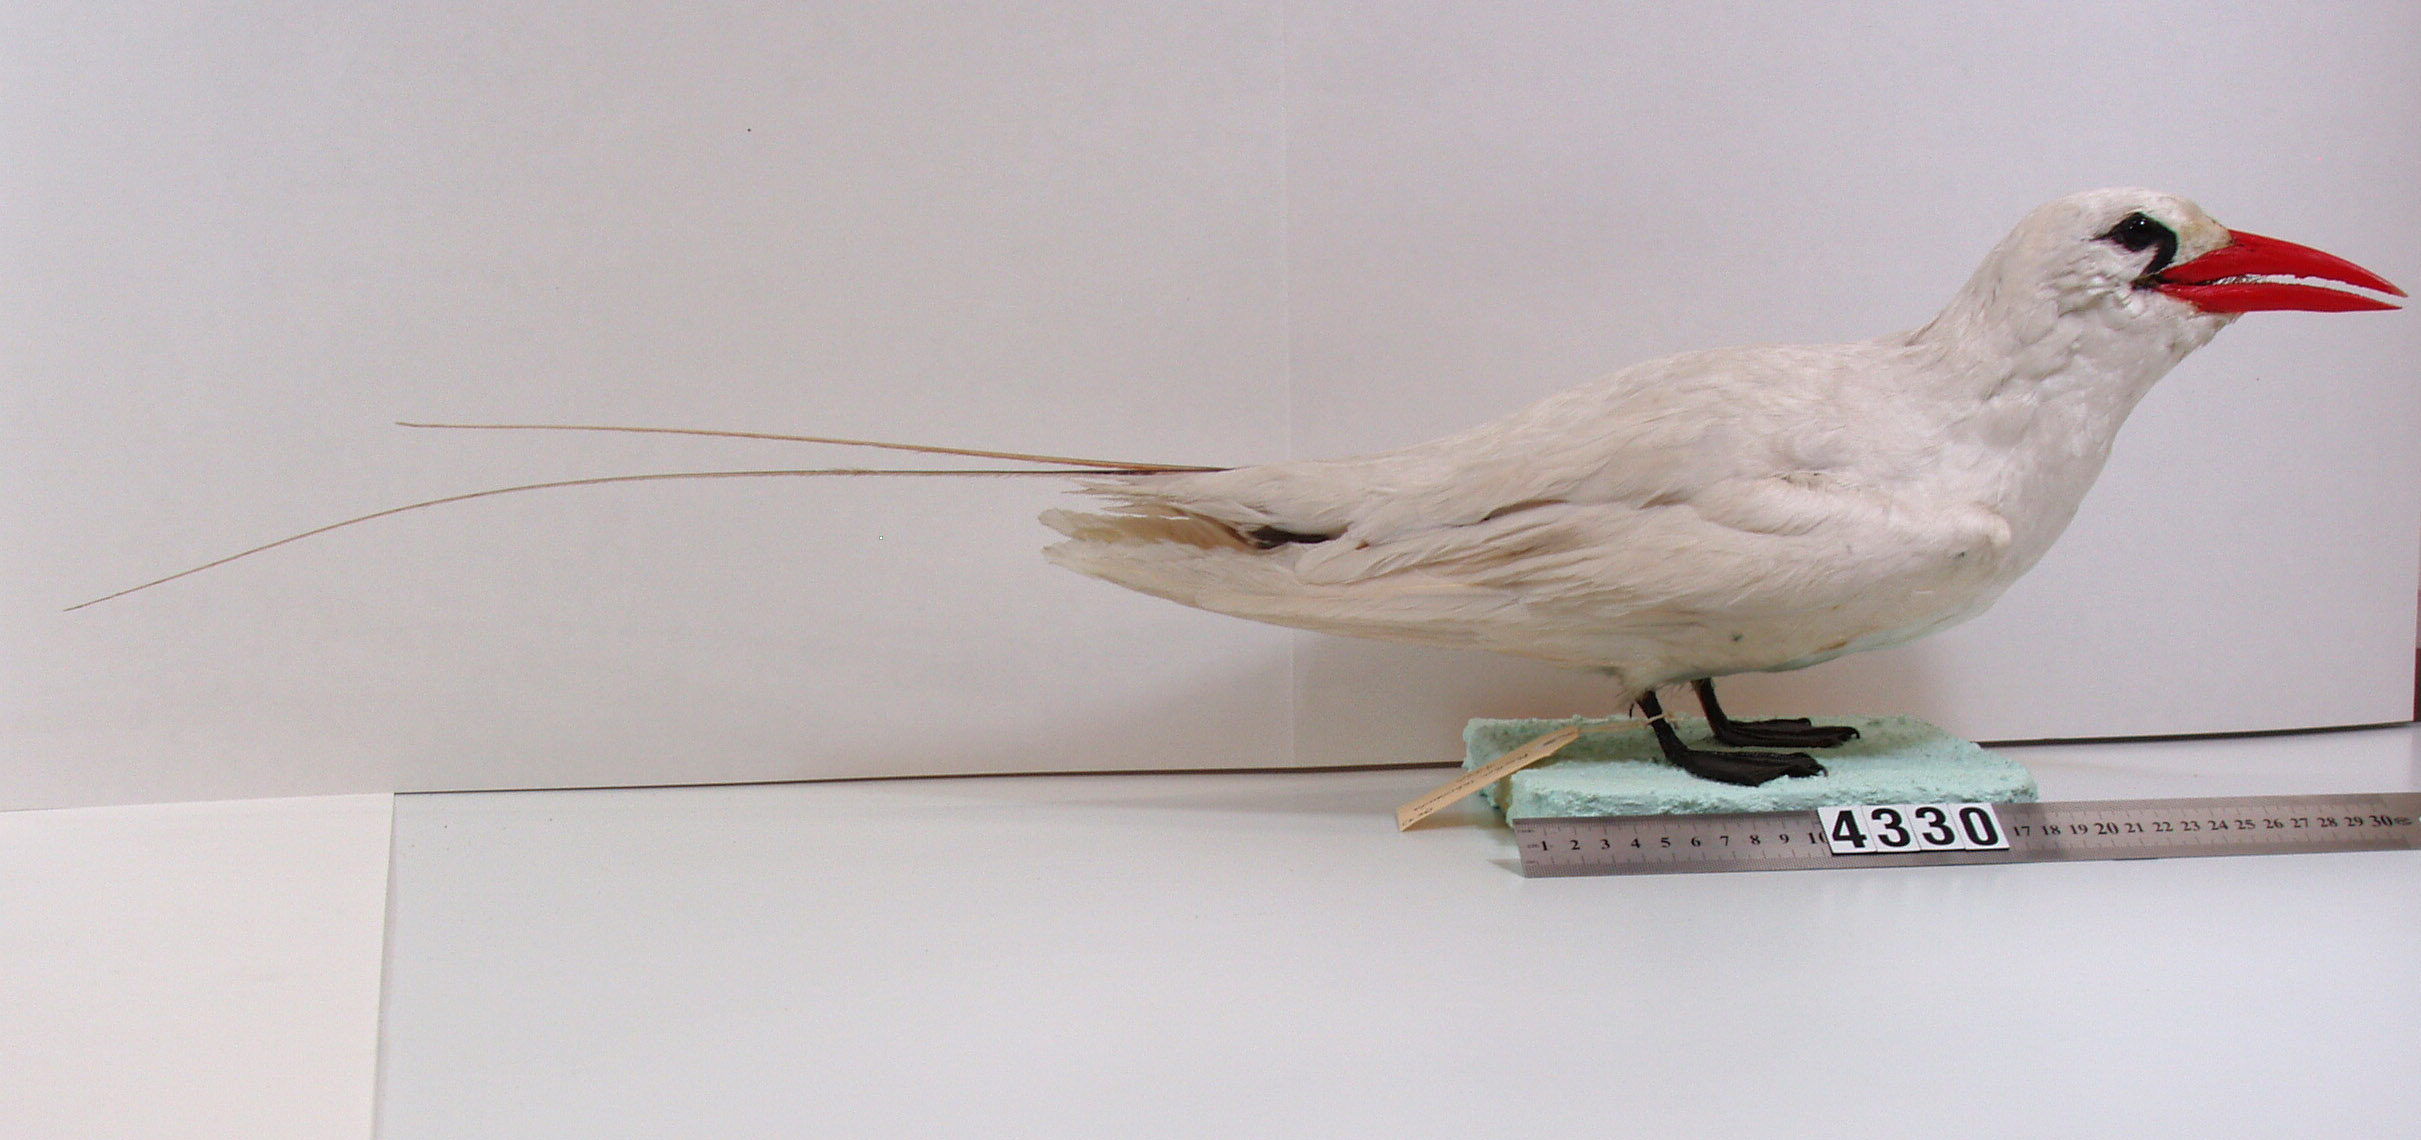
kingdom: Animalia
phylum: Chordata
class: Aves
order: Phaethontiformes
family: Phaethontidae
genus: Phaethon
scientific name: Phaethon rubricauda
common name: Red-tailed tropicbird
